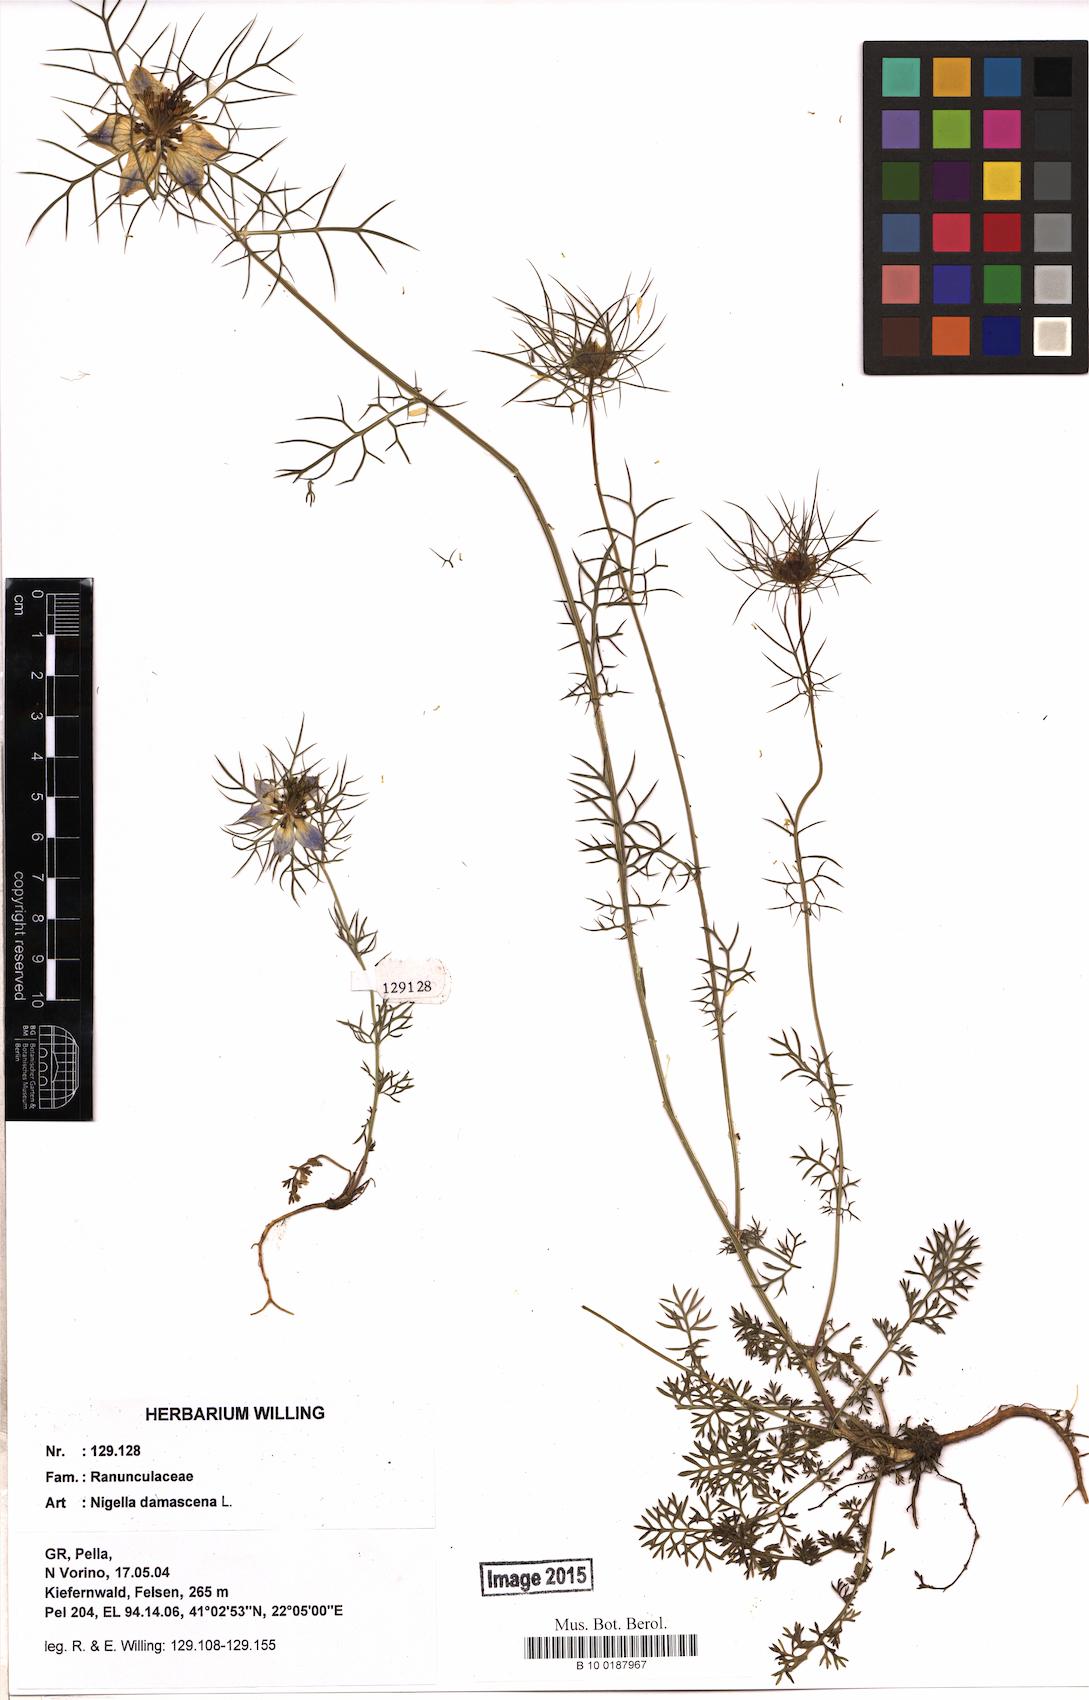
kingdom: Plantae
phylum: Tracheophyta
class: Magnoliopsida
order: Ranunculales
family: Ranunculaceae
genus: Nigella
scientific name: Nigella damascena
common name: Love-in-a-mist
